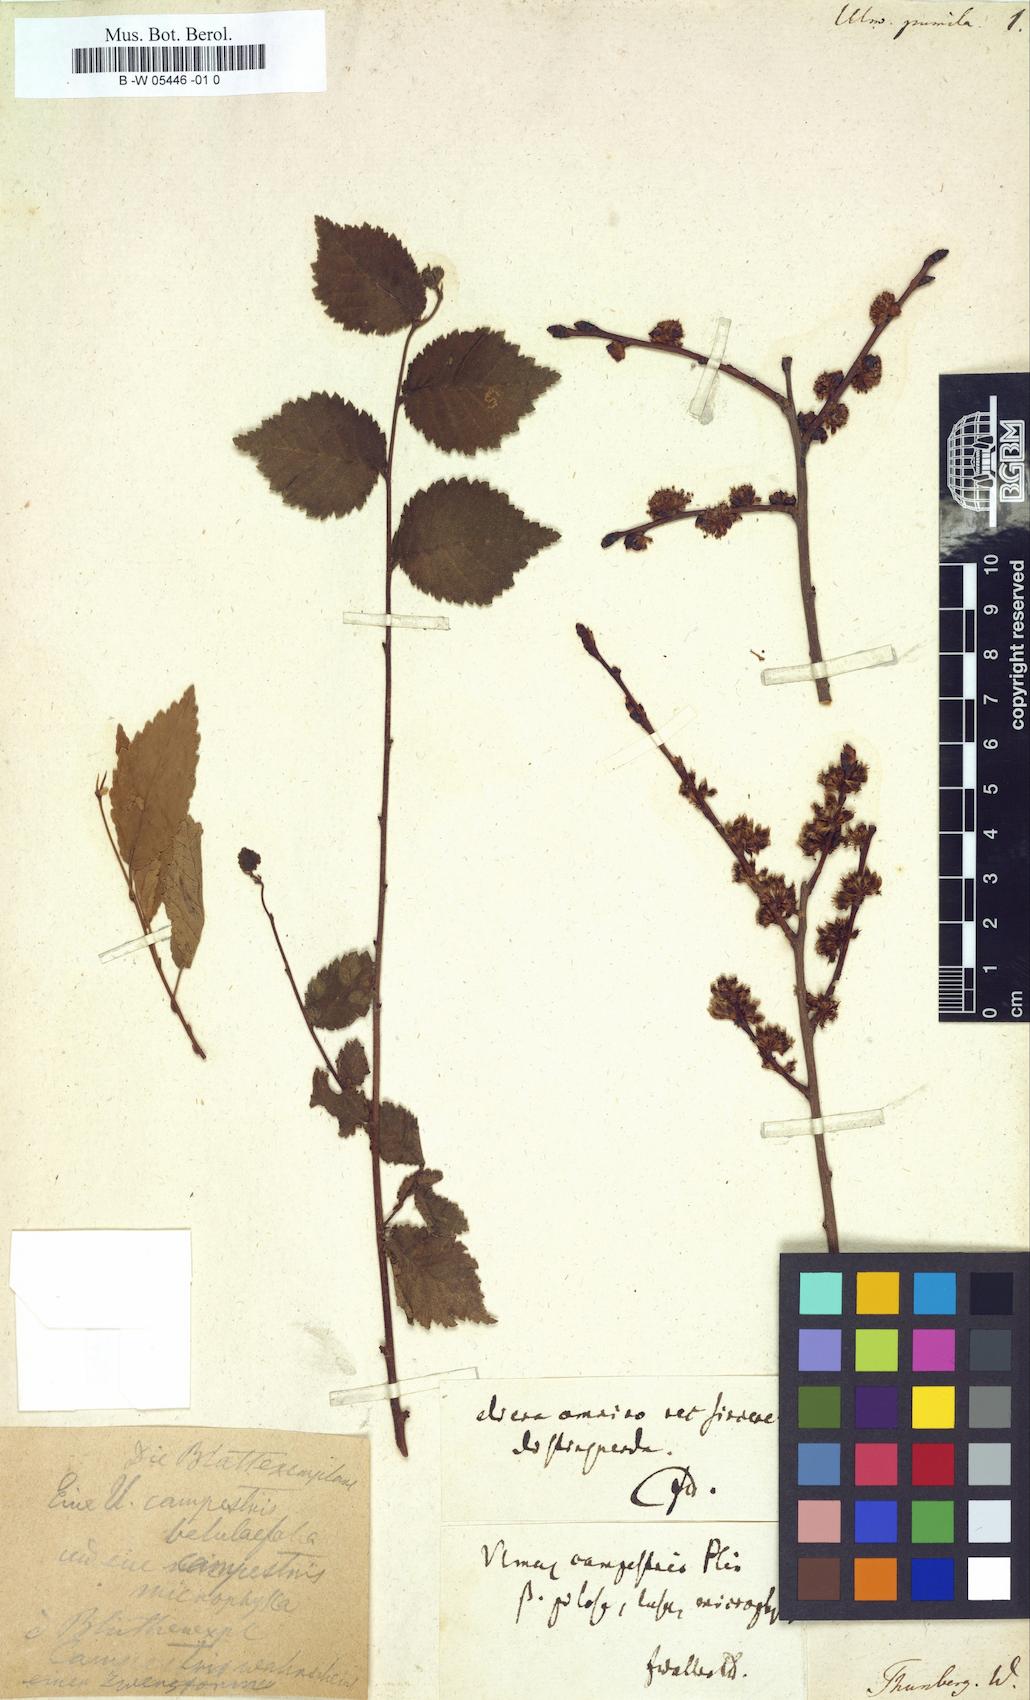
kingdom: Plantae
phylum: Tracheophyta
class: Magnoliopsida
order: Rosales
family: Ulmaceae
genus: Ulmus
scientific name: Ulmus pumila
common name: Siberian elm
